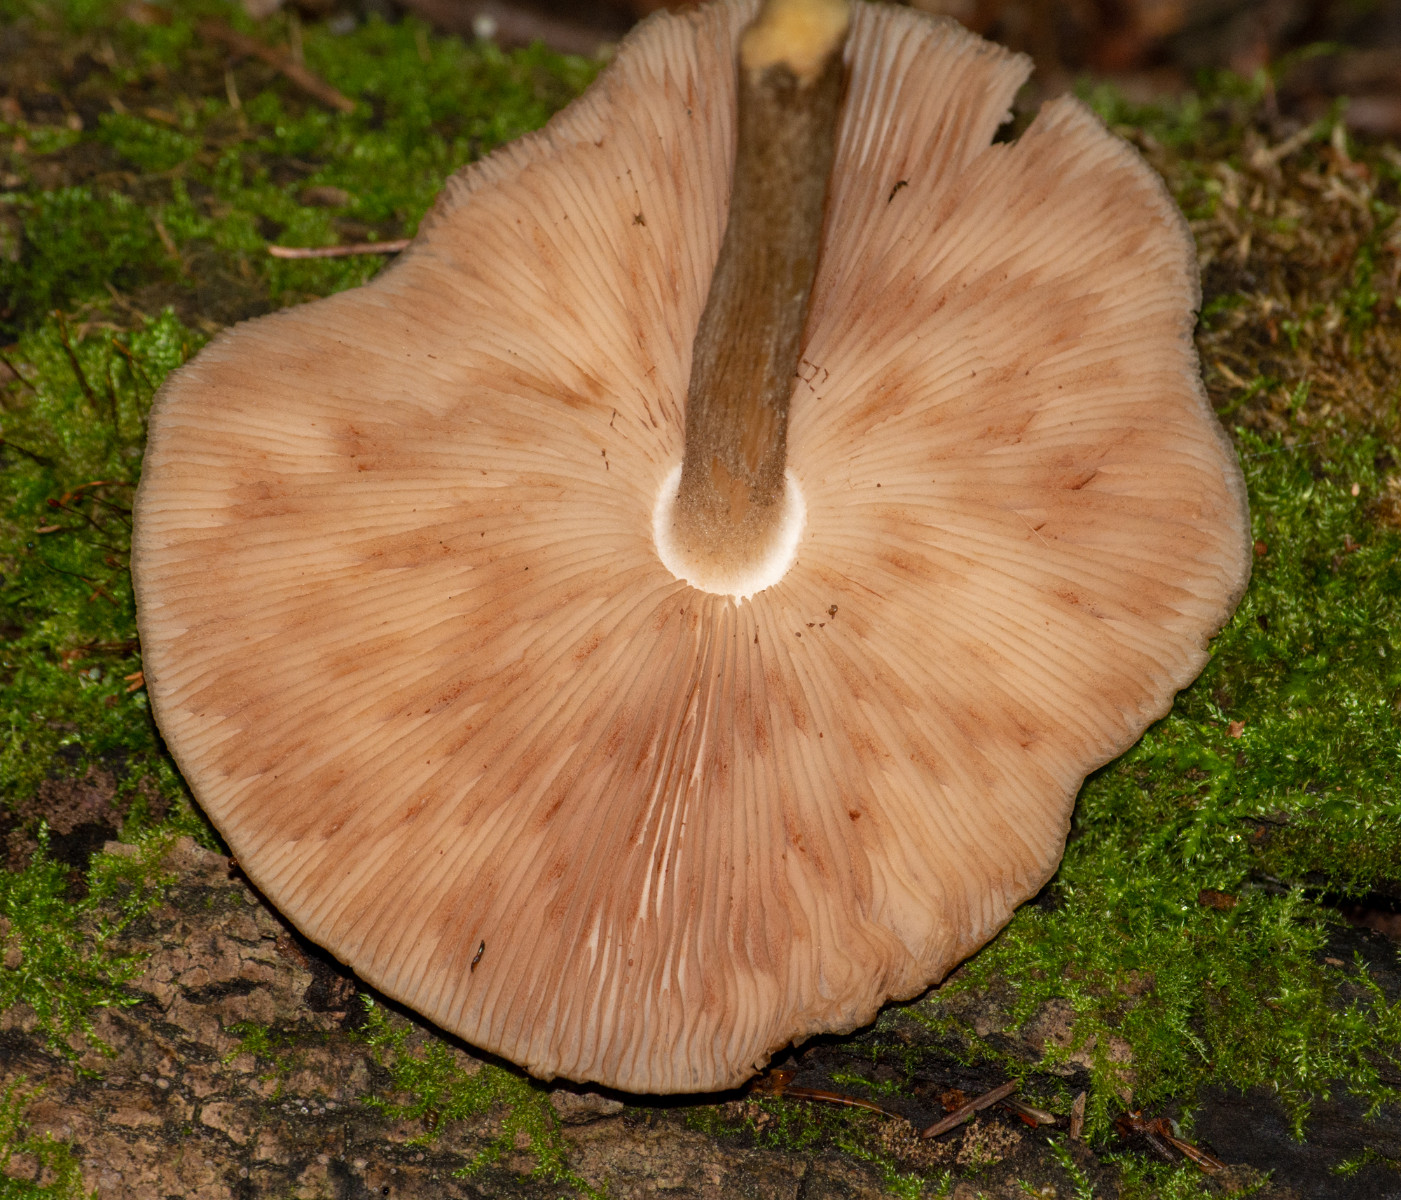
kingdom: Fungi
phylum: Basidiomycota
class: Agaricomycetes
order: Agaricales
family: Pluteaceae
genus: Pluteus
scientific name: Pluteus cervinus
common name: sodfarvet skærmhat
